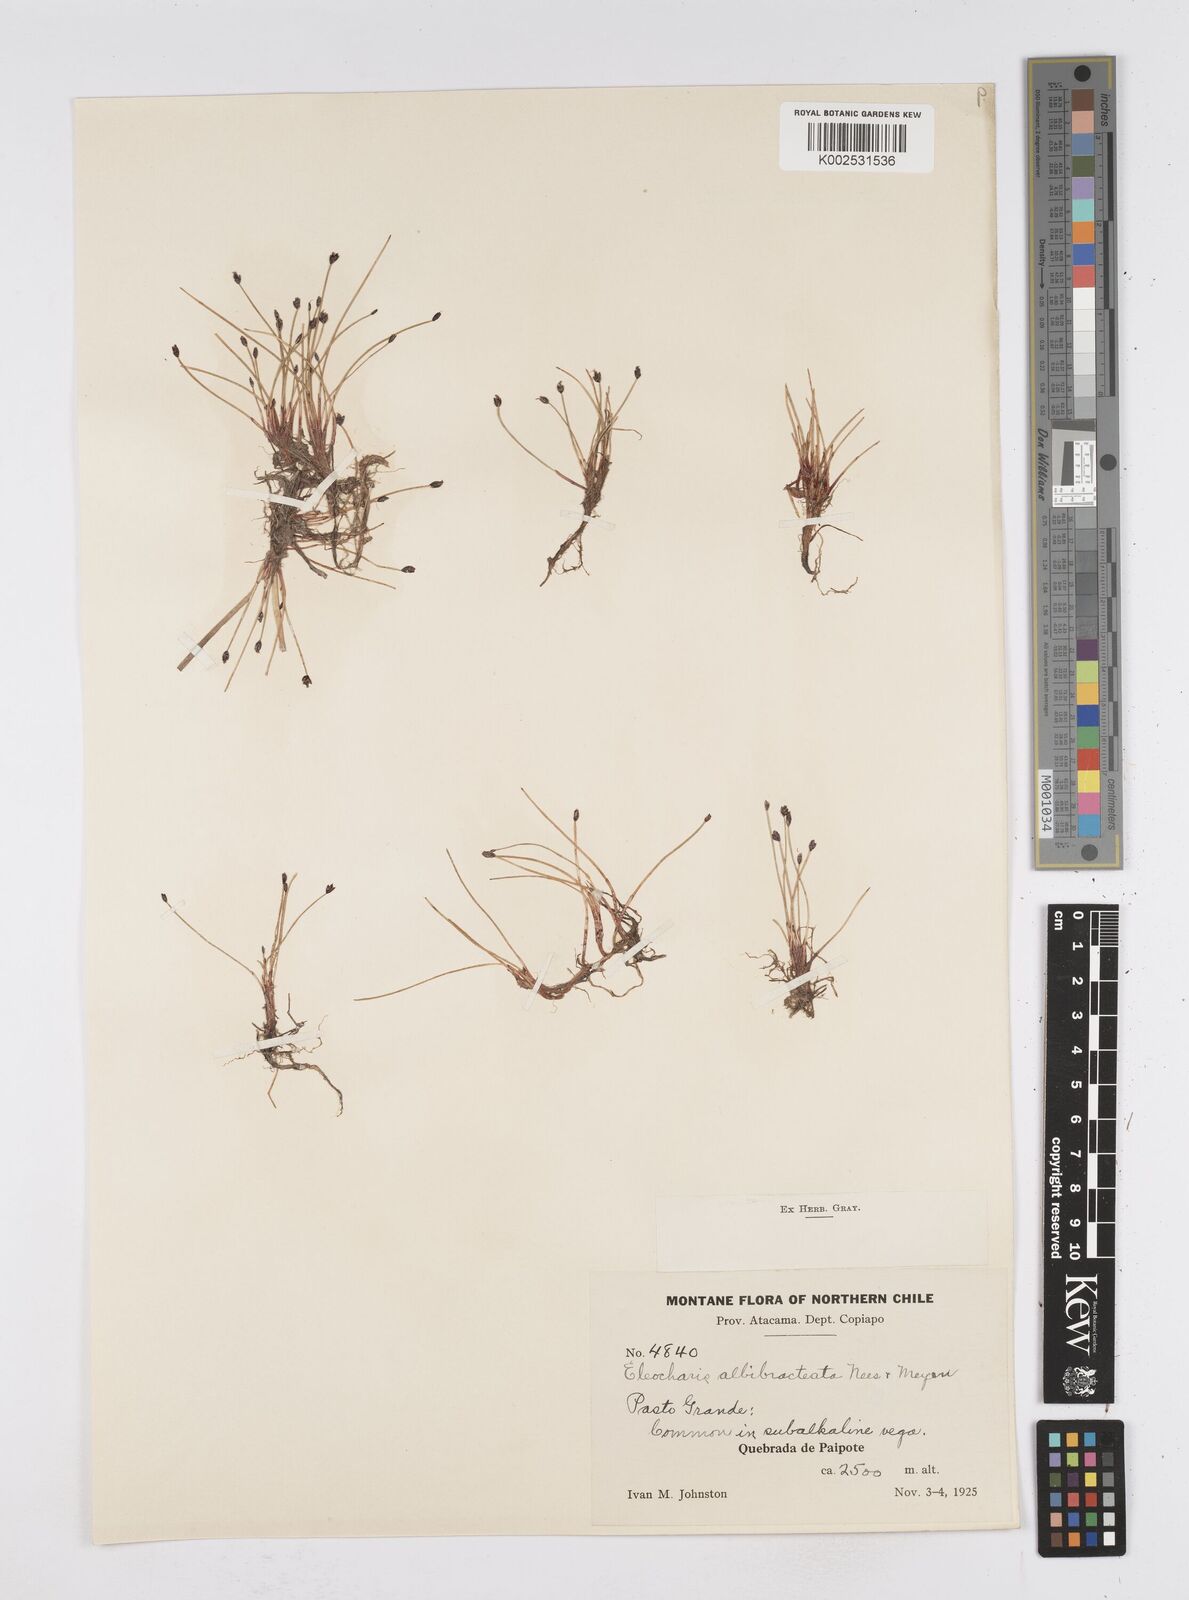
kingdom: Plantae
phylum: Tracheophyta
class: Liliopsida
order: Poales
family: Cyperaceae
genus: Eleocharis
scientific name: Eleocharis albibracteata
